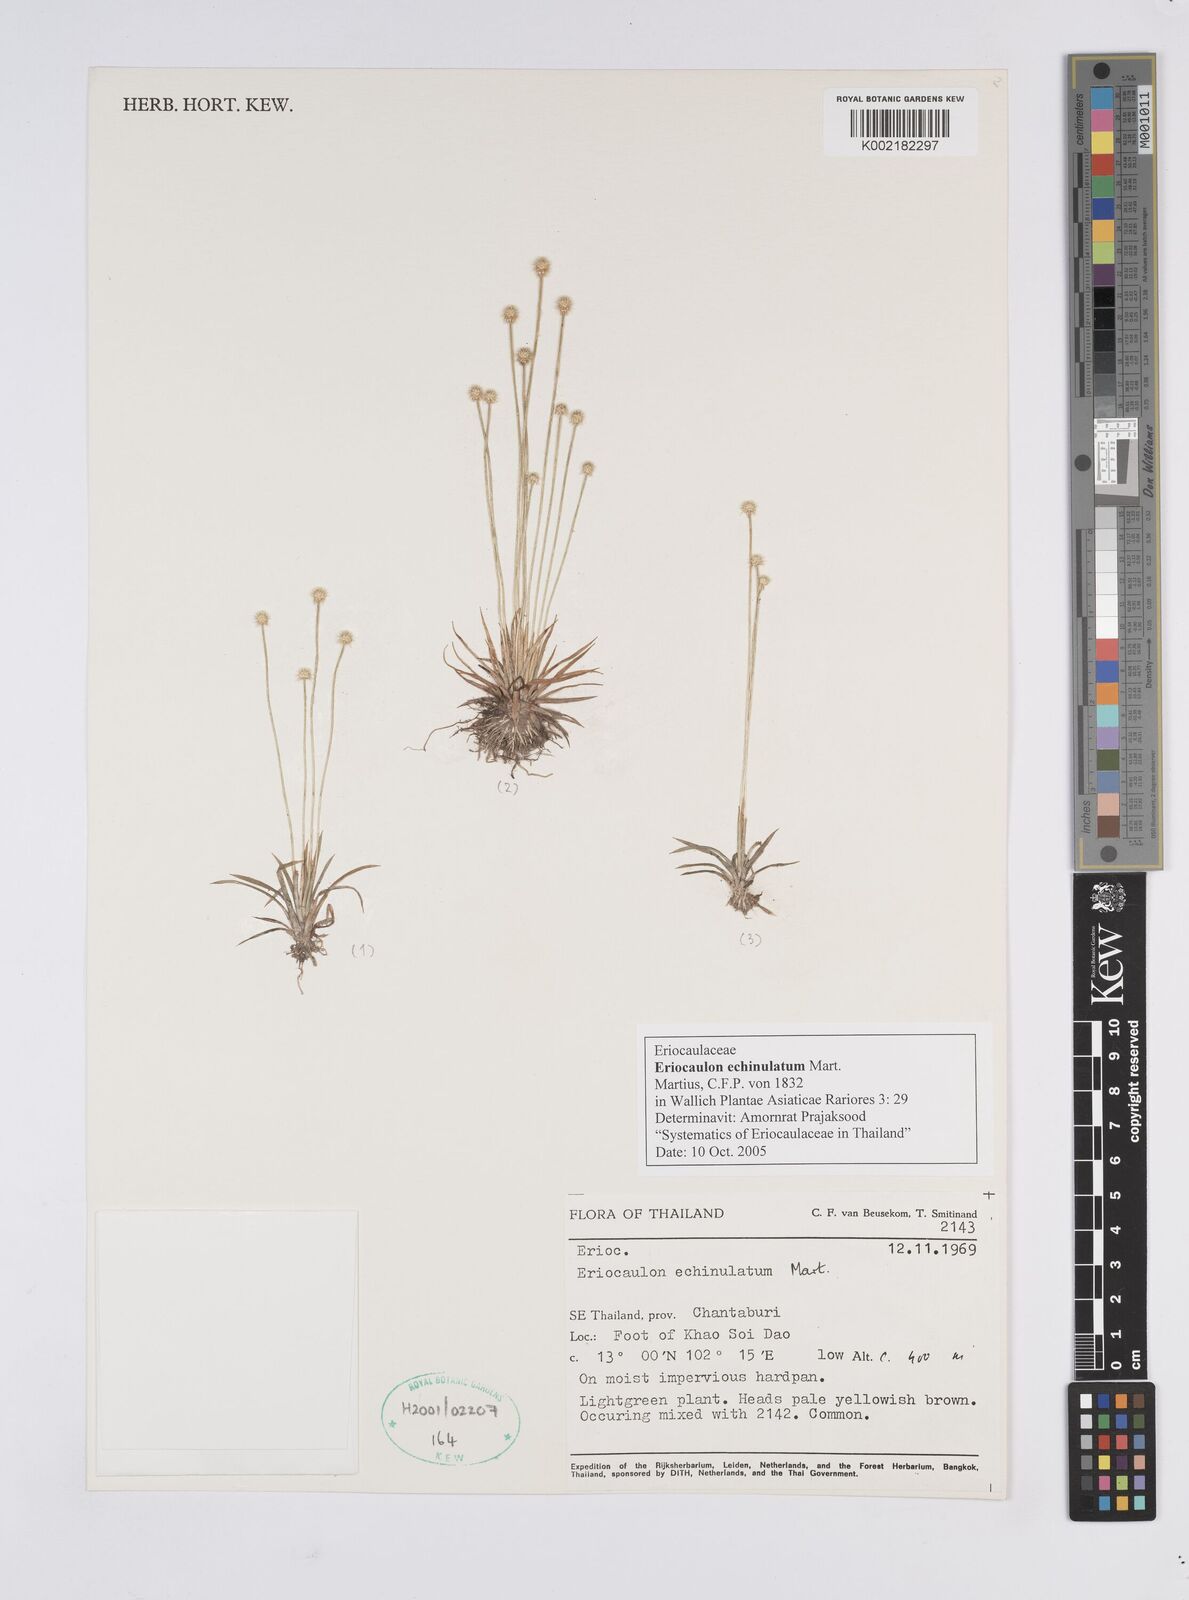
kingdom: Plantae
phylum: Tracheophyta
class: Liliopsida
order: Poales
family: Eriocaulaceae
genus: Eriocaulon
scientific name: Eriocaulon echinulatum
